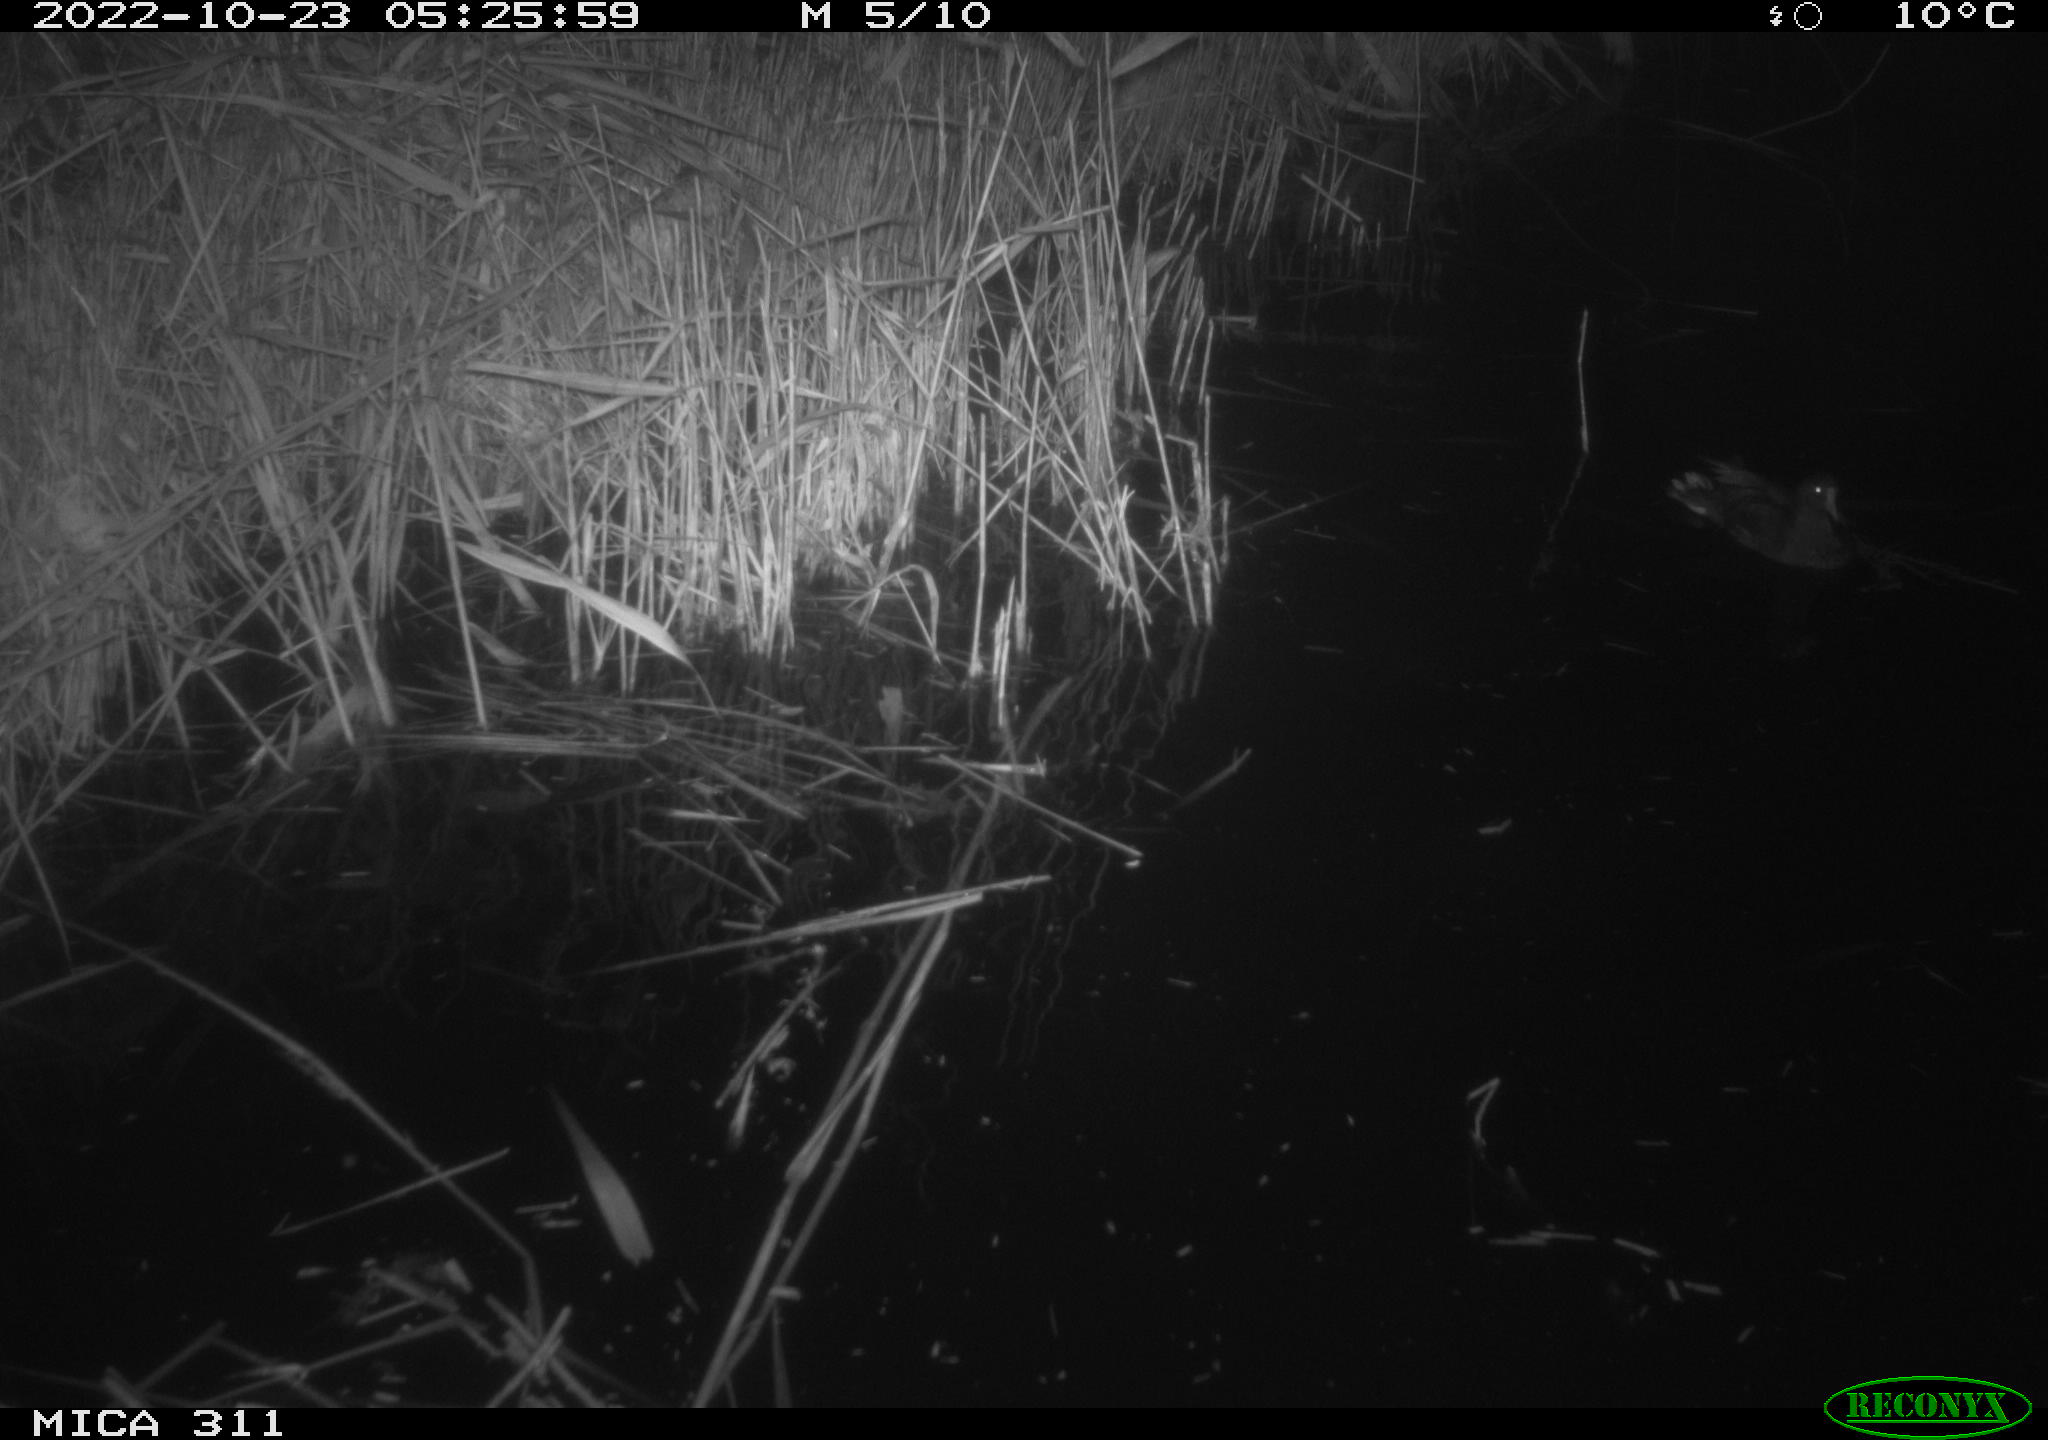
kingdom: Animalia
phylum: Chordata
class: Aves
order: Gruiformes
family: Rallidae
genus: Gallinula
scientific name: Gallinula chloropus
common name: Common moorhen
